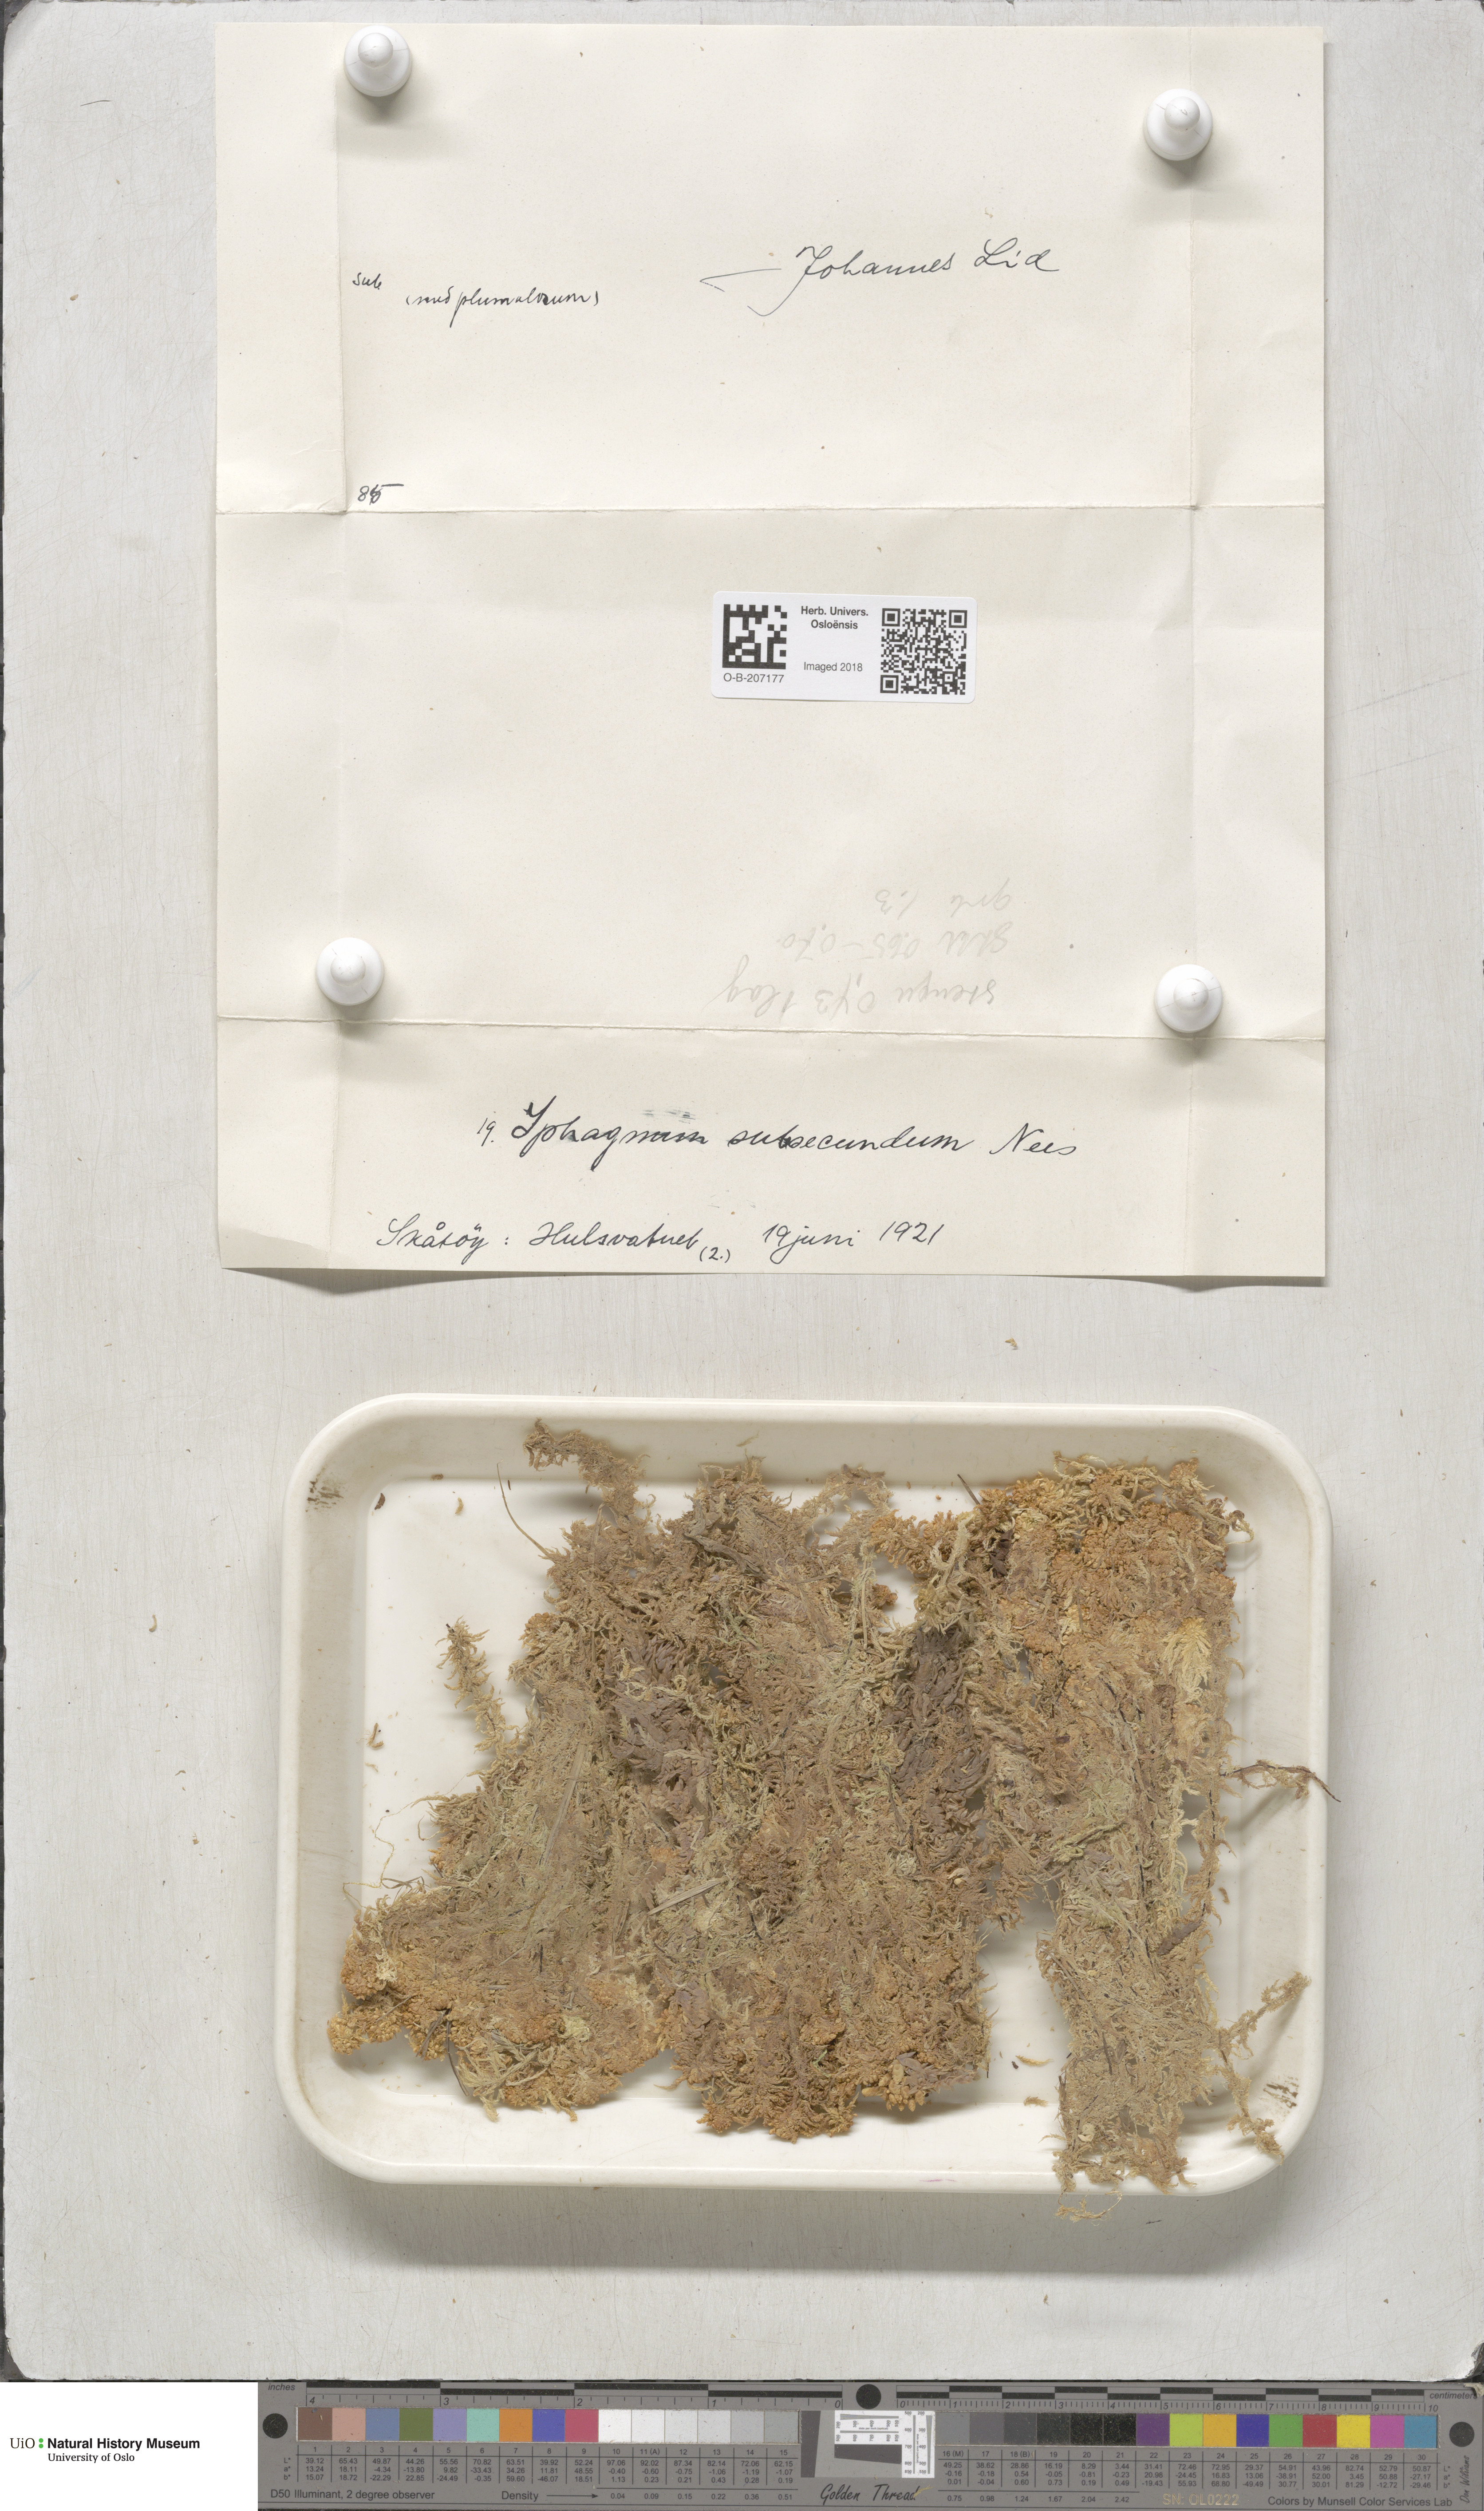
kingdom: Plantae
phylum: Bryophyta
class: Sphagnopsida
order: Sphagnales
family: Sphagnaceae
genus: Sphagnum
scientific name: Sphagnum subsecundum
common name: Orange peat moss
